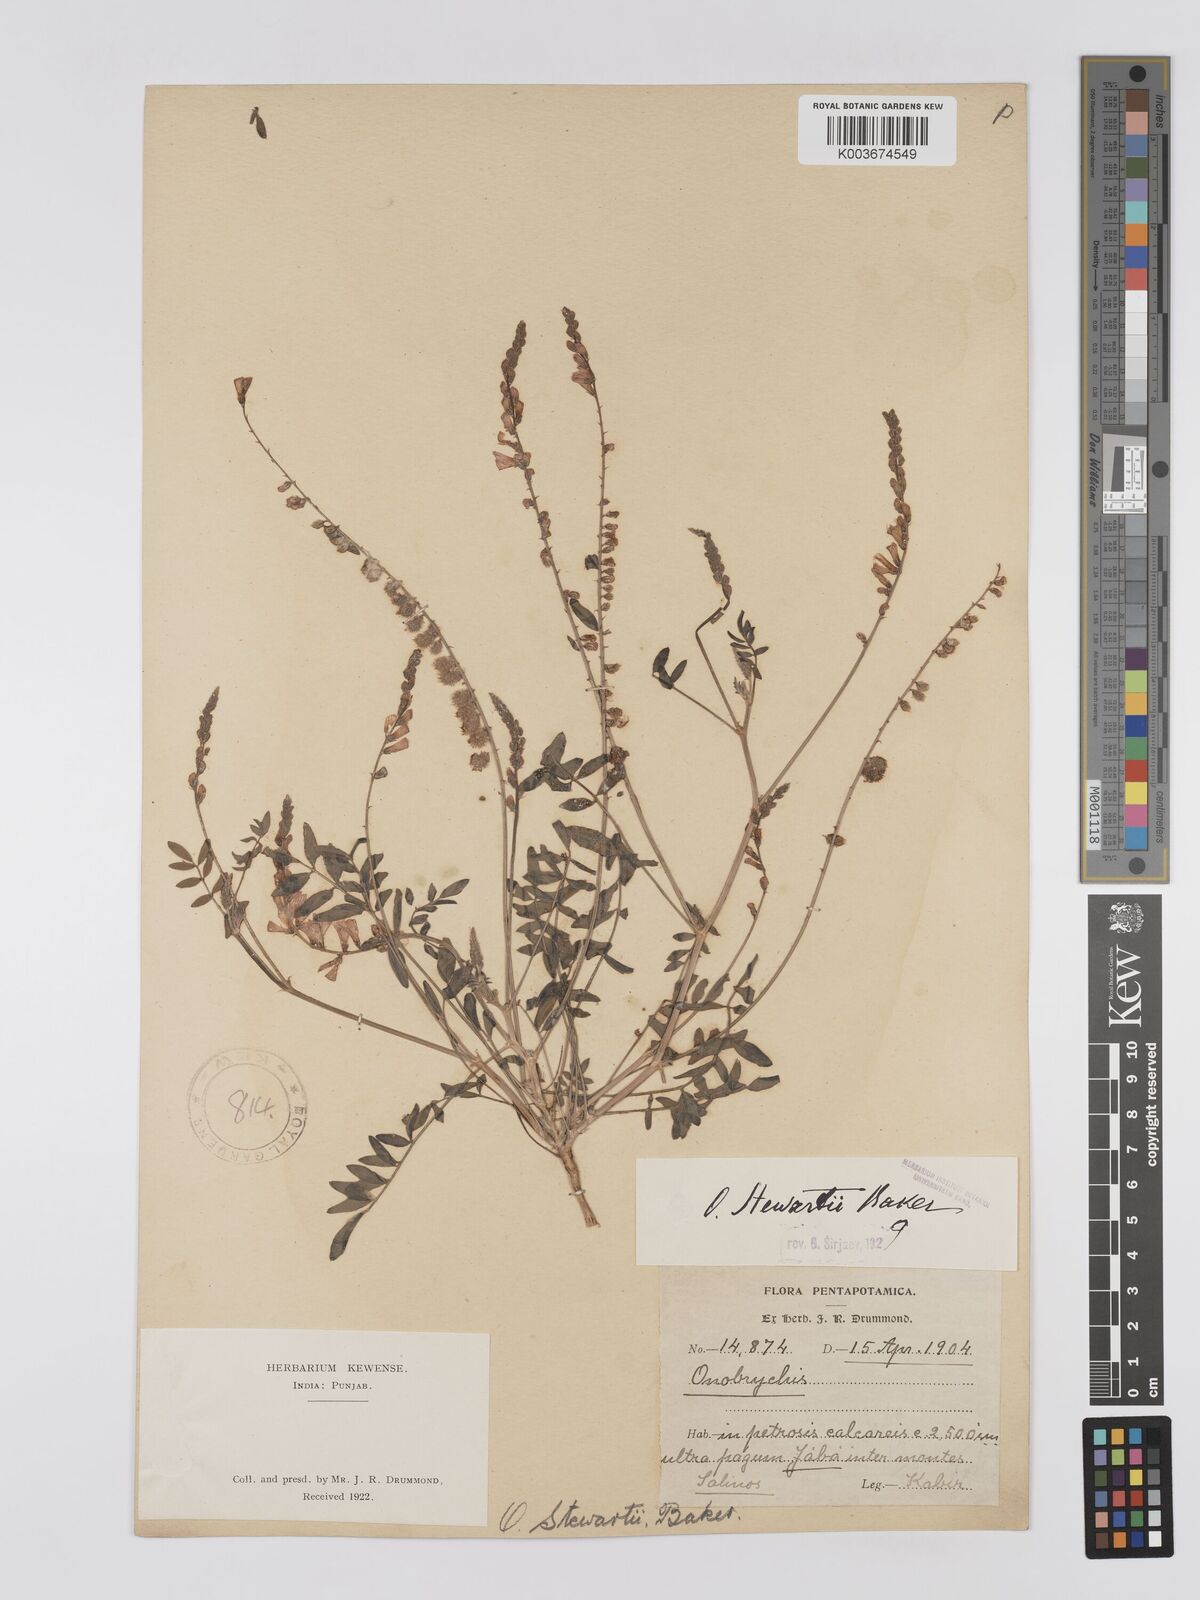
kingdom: Plantae
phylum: Tracheophyta
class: Magnoliopsida
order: Fabales
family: Fabaceae
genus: Onobrychis
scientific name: Onobrychis stewartii
